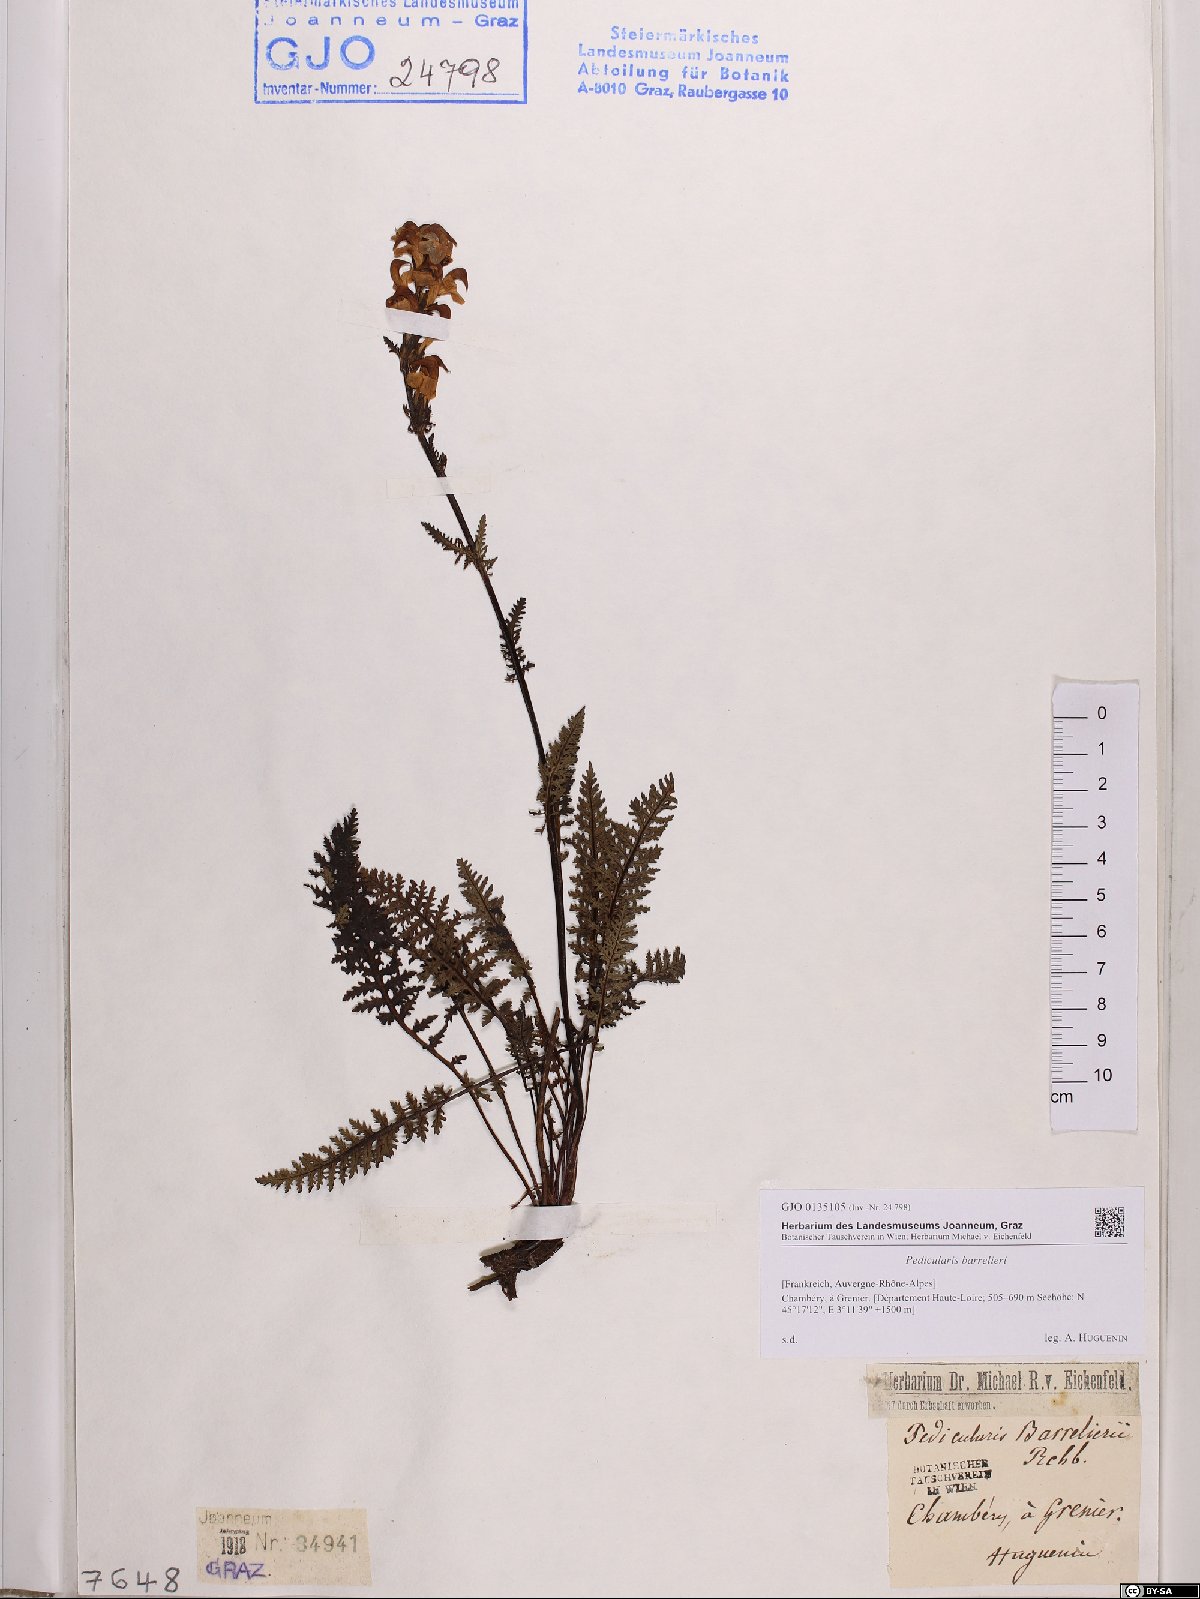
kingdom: Plantae
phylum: Tracheophyta
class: Magnoliopsida
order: Lamiales
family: Orobanchaceae
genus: Pedicularis
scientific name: Pedicularis ascendens
